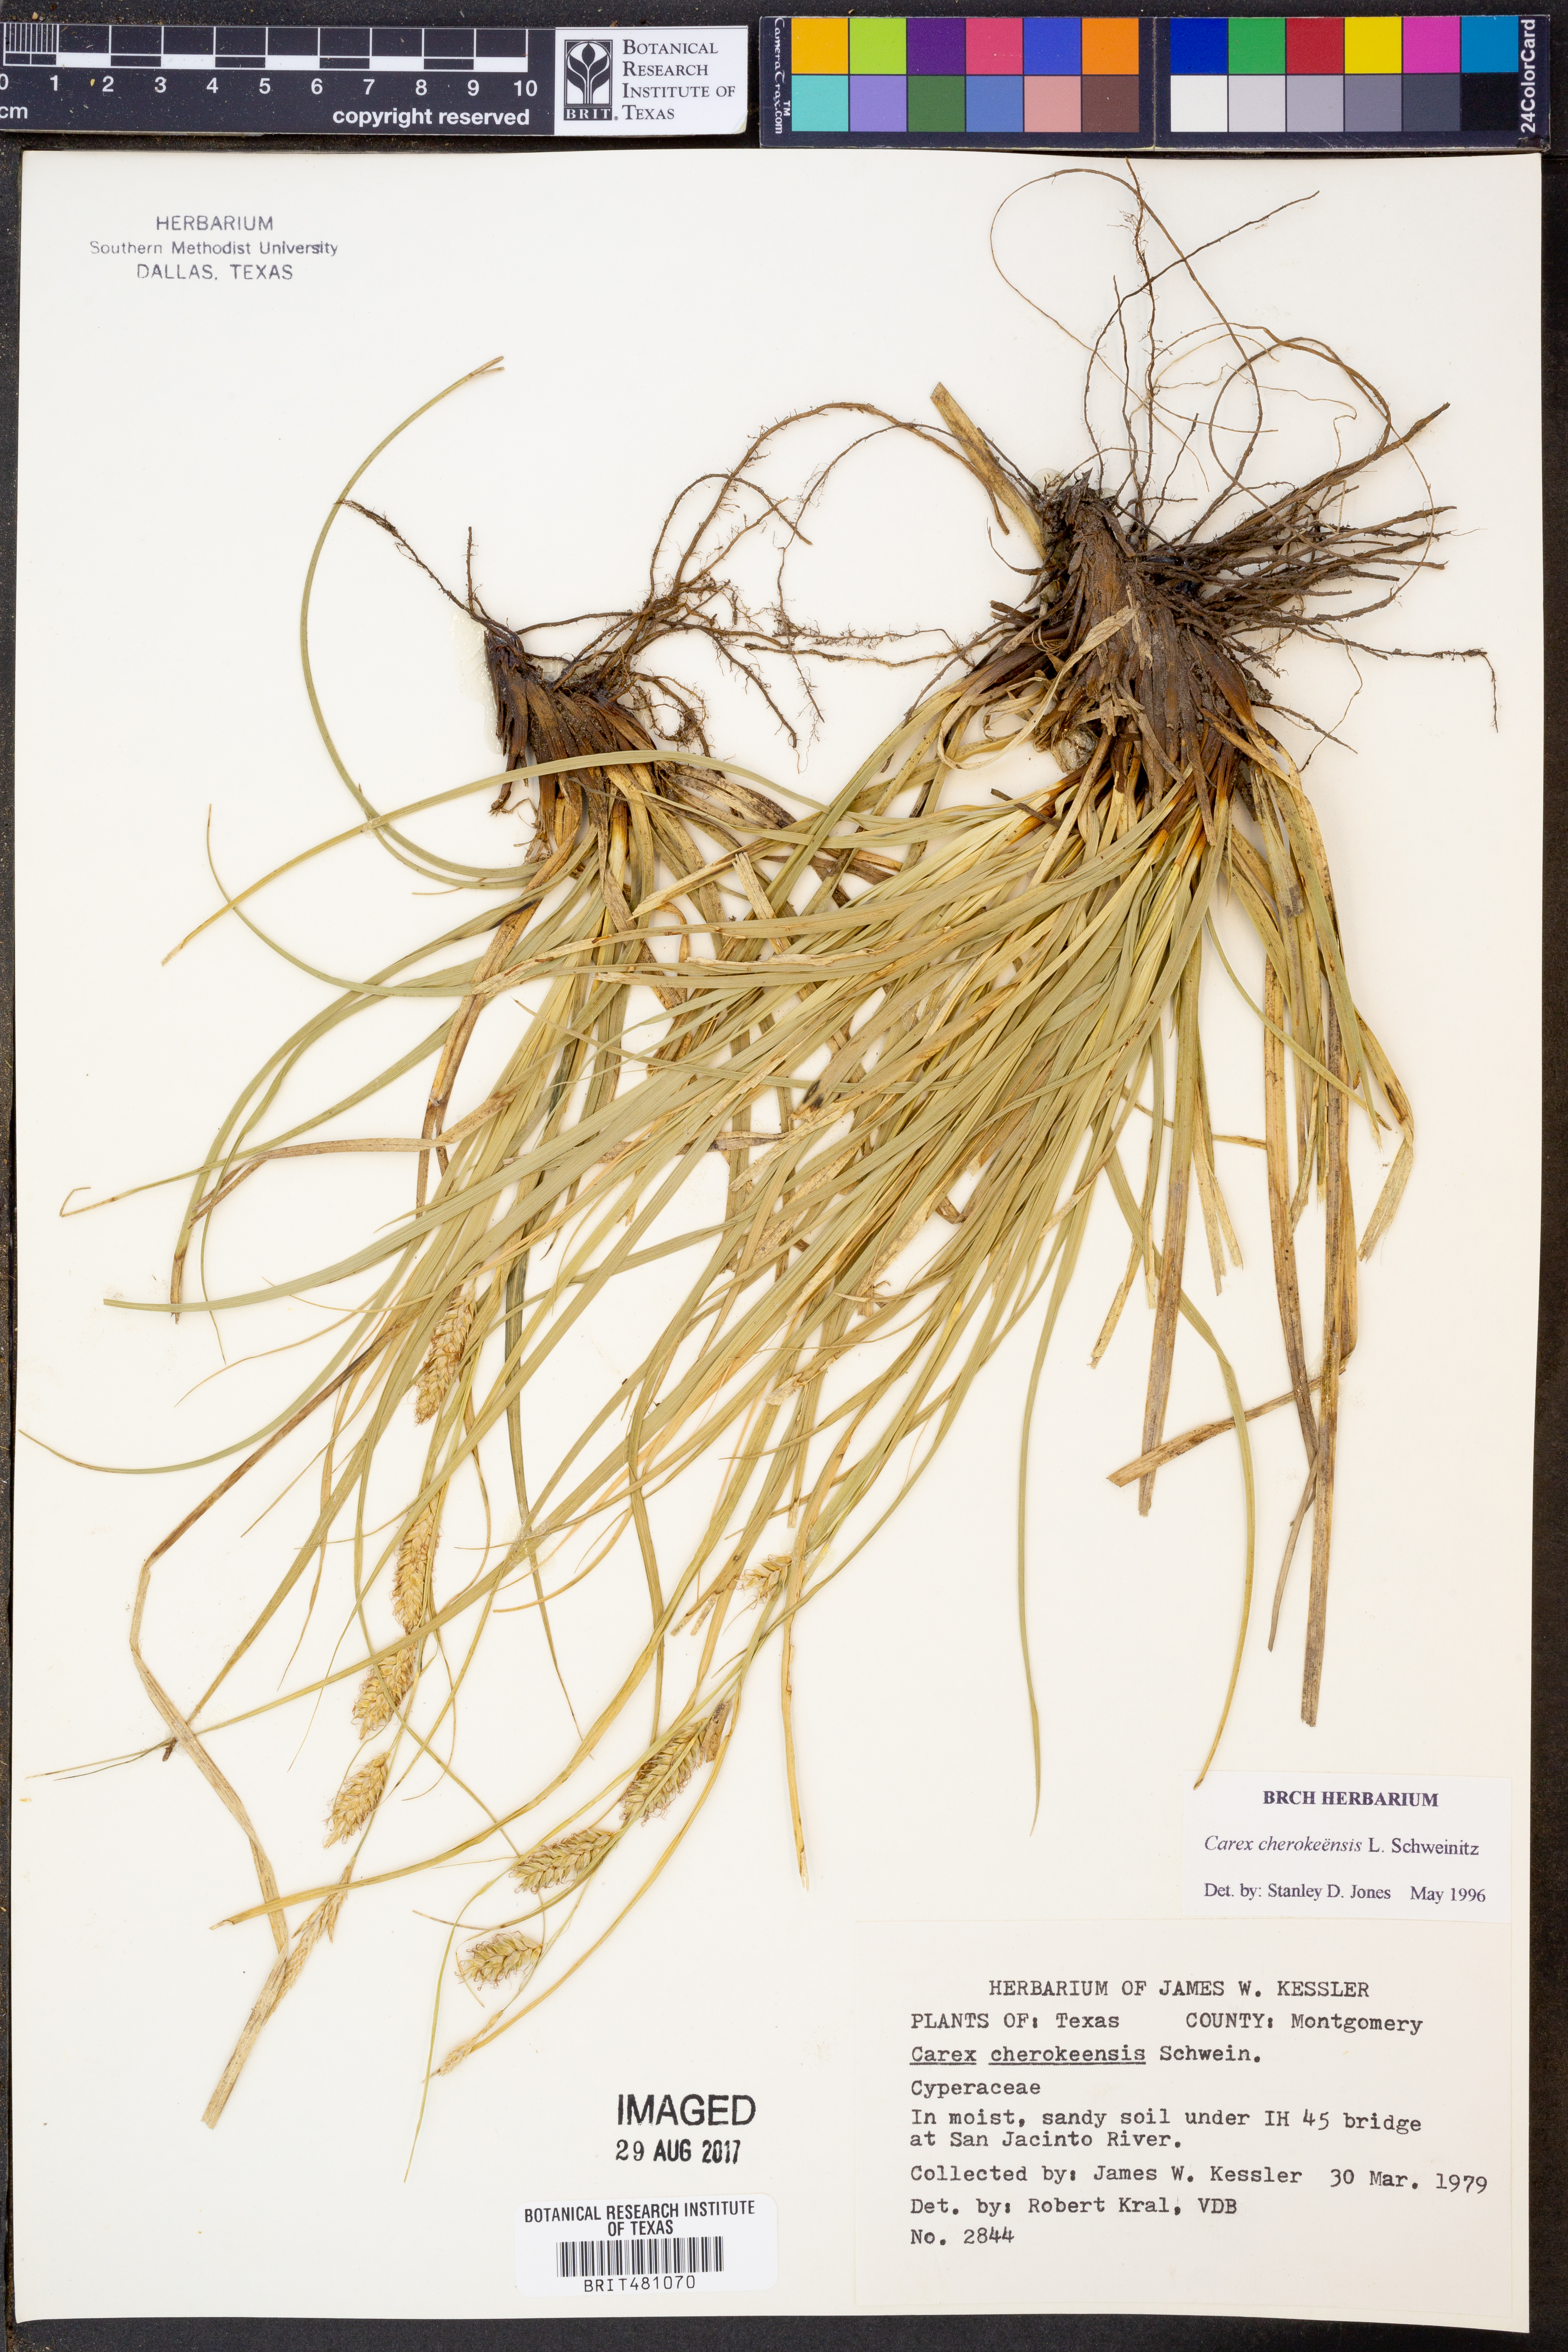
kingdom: Plantae
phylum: Tracheophyta
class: Liliopsida
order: Poales
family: Cyperaceae
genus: Carex
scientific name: Carex cherokeensis
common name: Cherokee sedge
